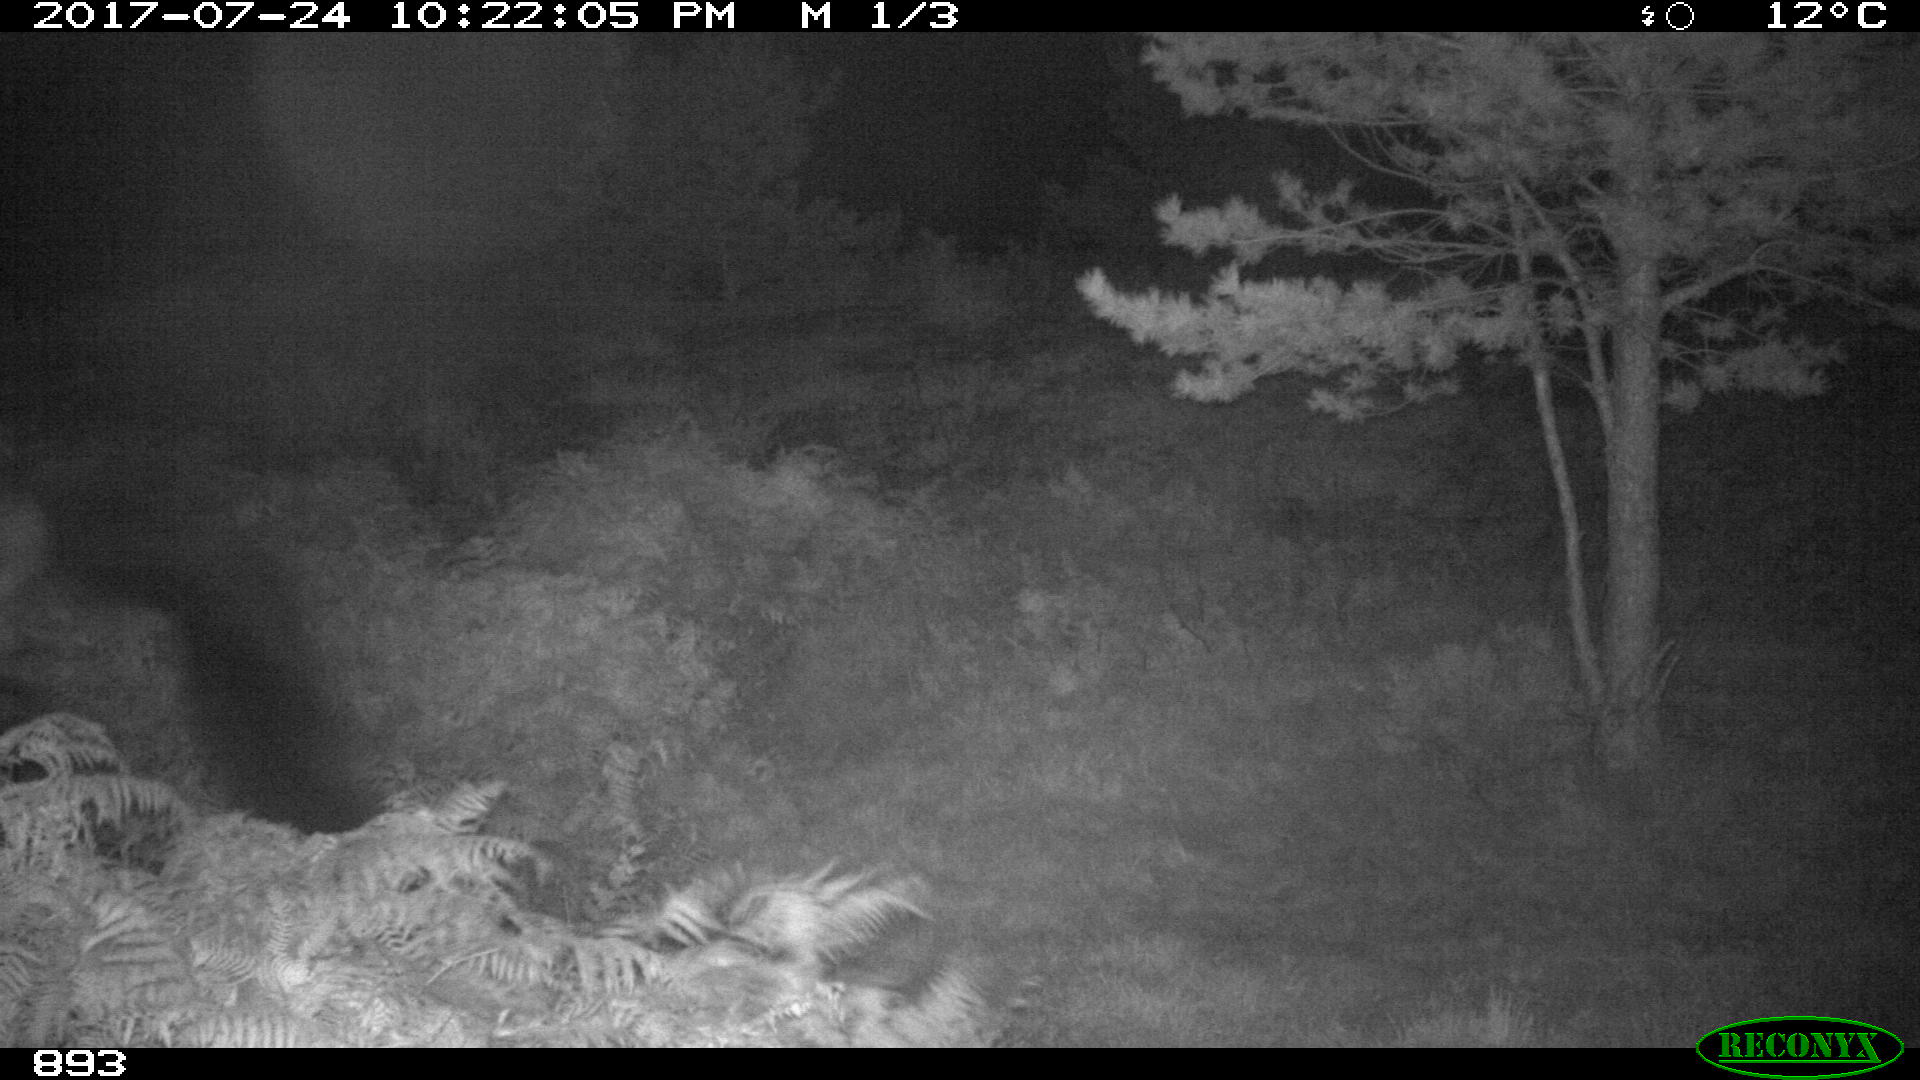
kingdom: Animalia
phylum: Chordata
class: Mammalia
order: Perissodactyla
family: Equidae
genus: Equus
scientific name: Equus caballus
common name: Horse
